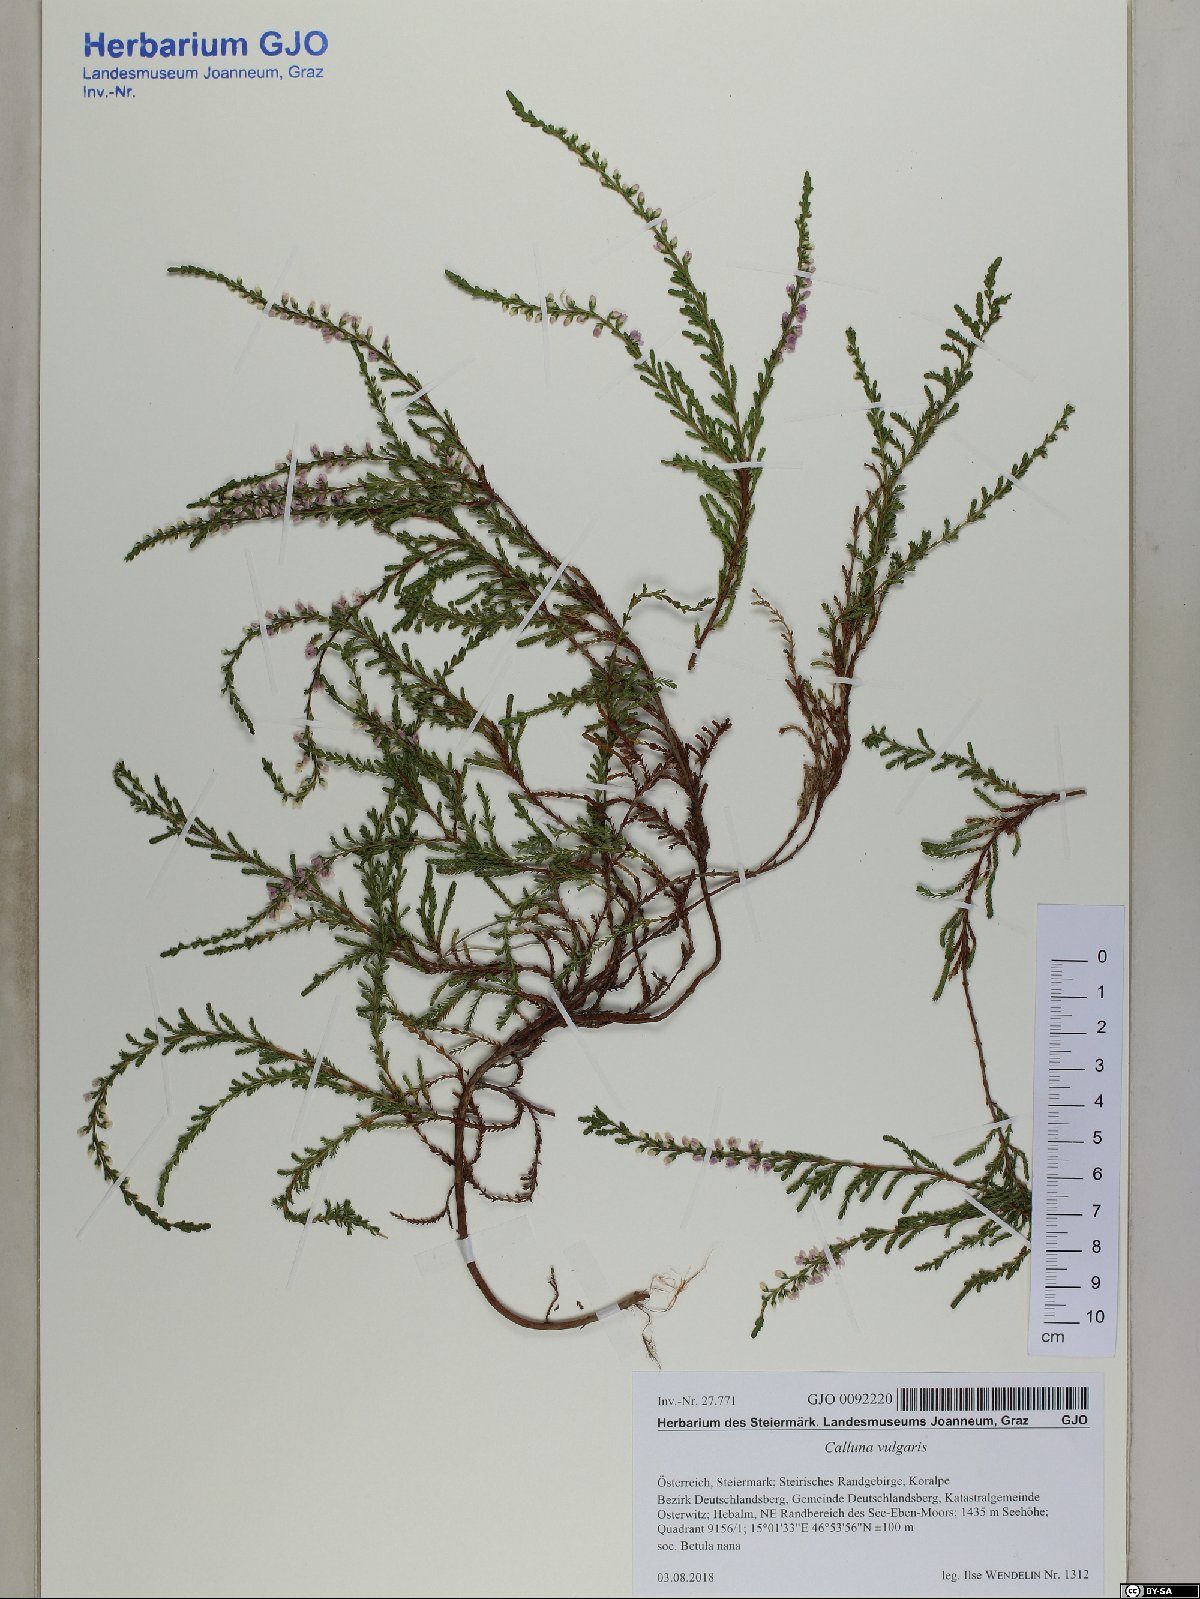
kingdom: Plantae
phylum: Tracheophyta
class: Magnoliopsida
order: Ericales
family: Ericaceae
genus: Calluna
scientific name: Calluna vulgaris
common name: Heather
